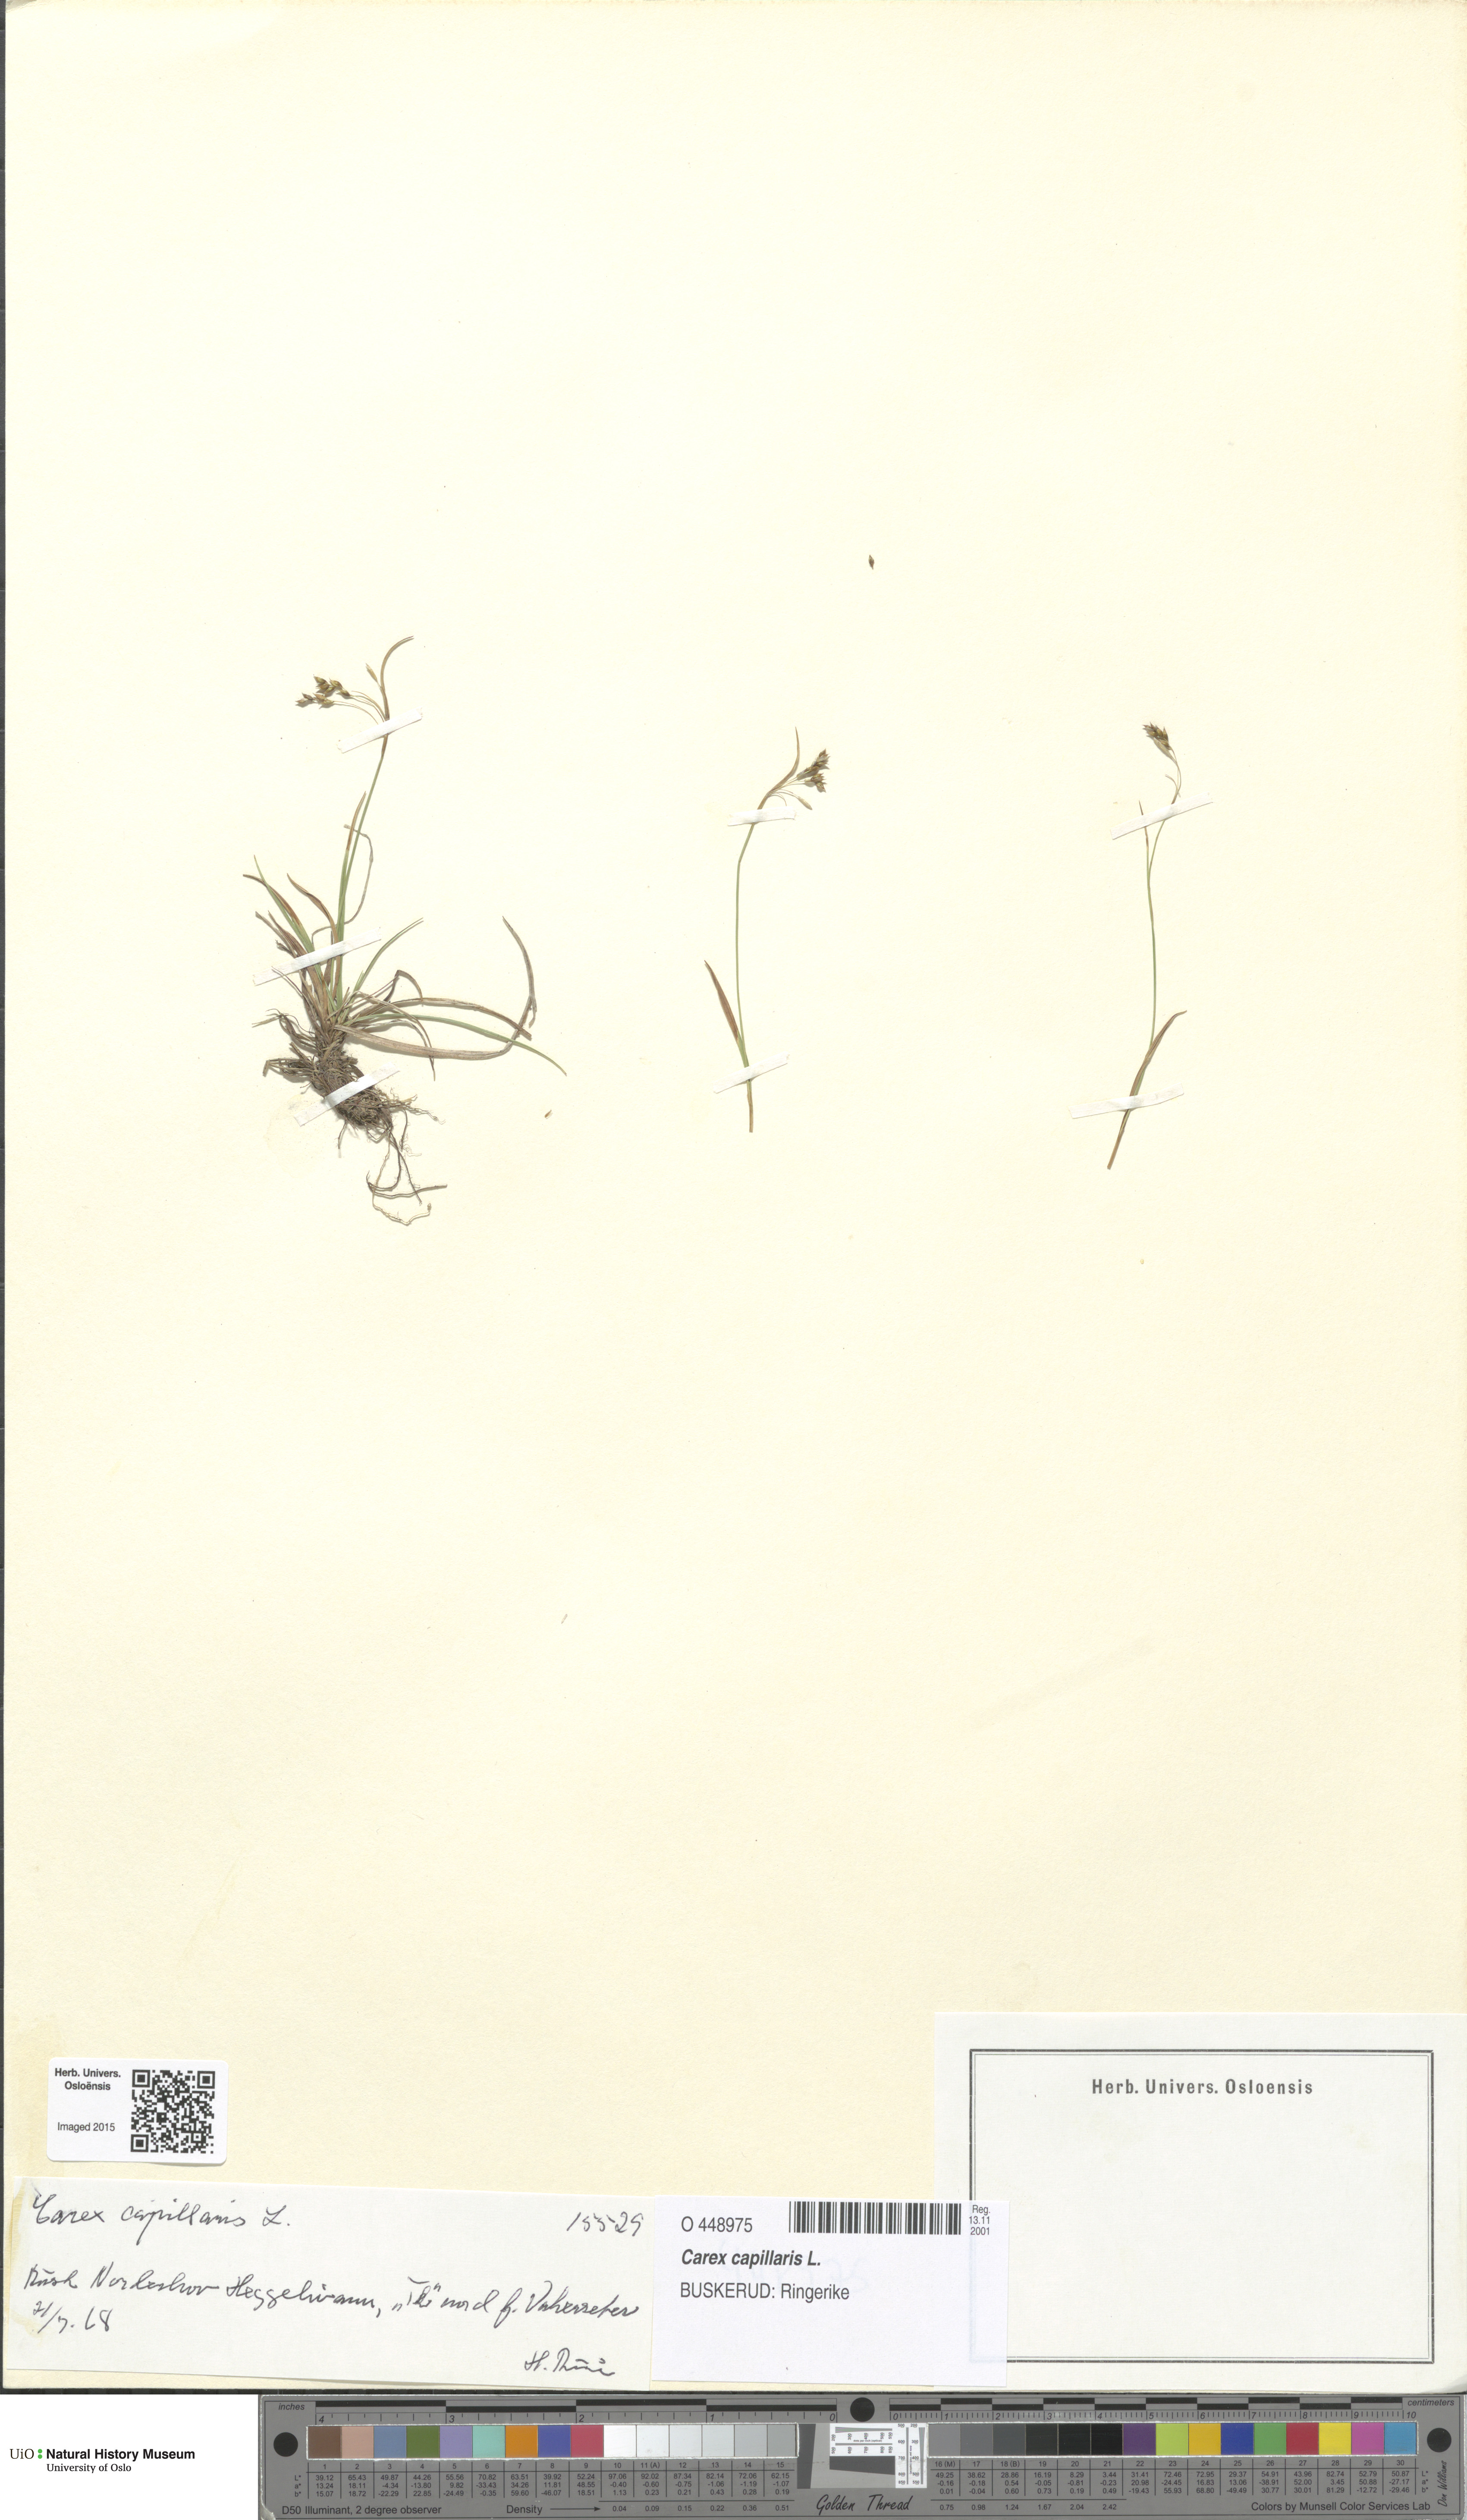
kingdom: Plantae
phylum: Tracheophyta
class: Liliopsida
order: Poales
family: Cyperaceae
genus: Carex
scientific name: Carex capillaris
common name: Hair sedge
